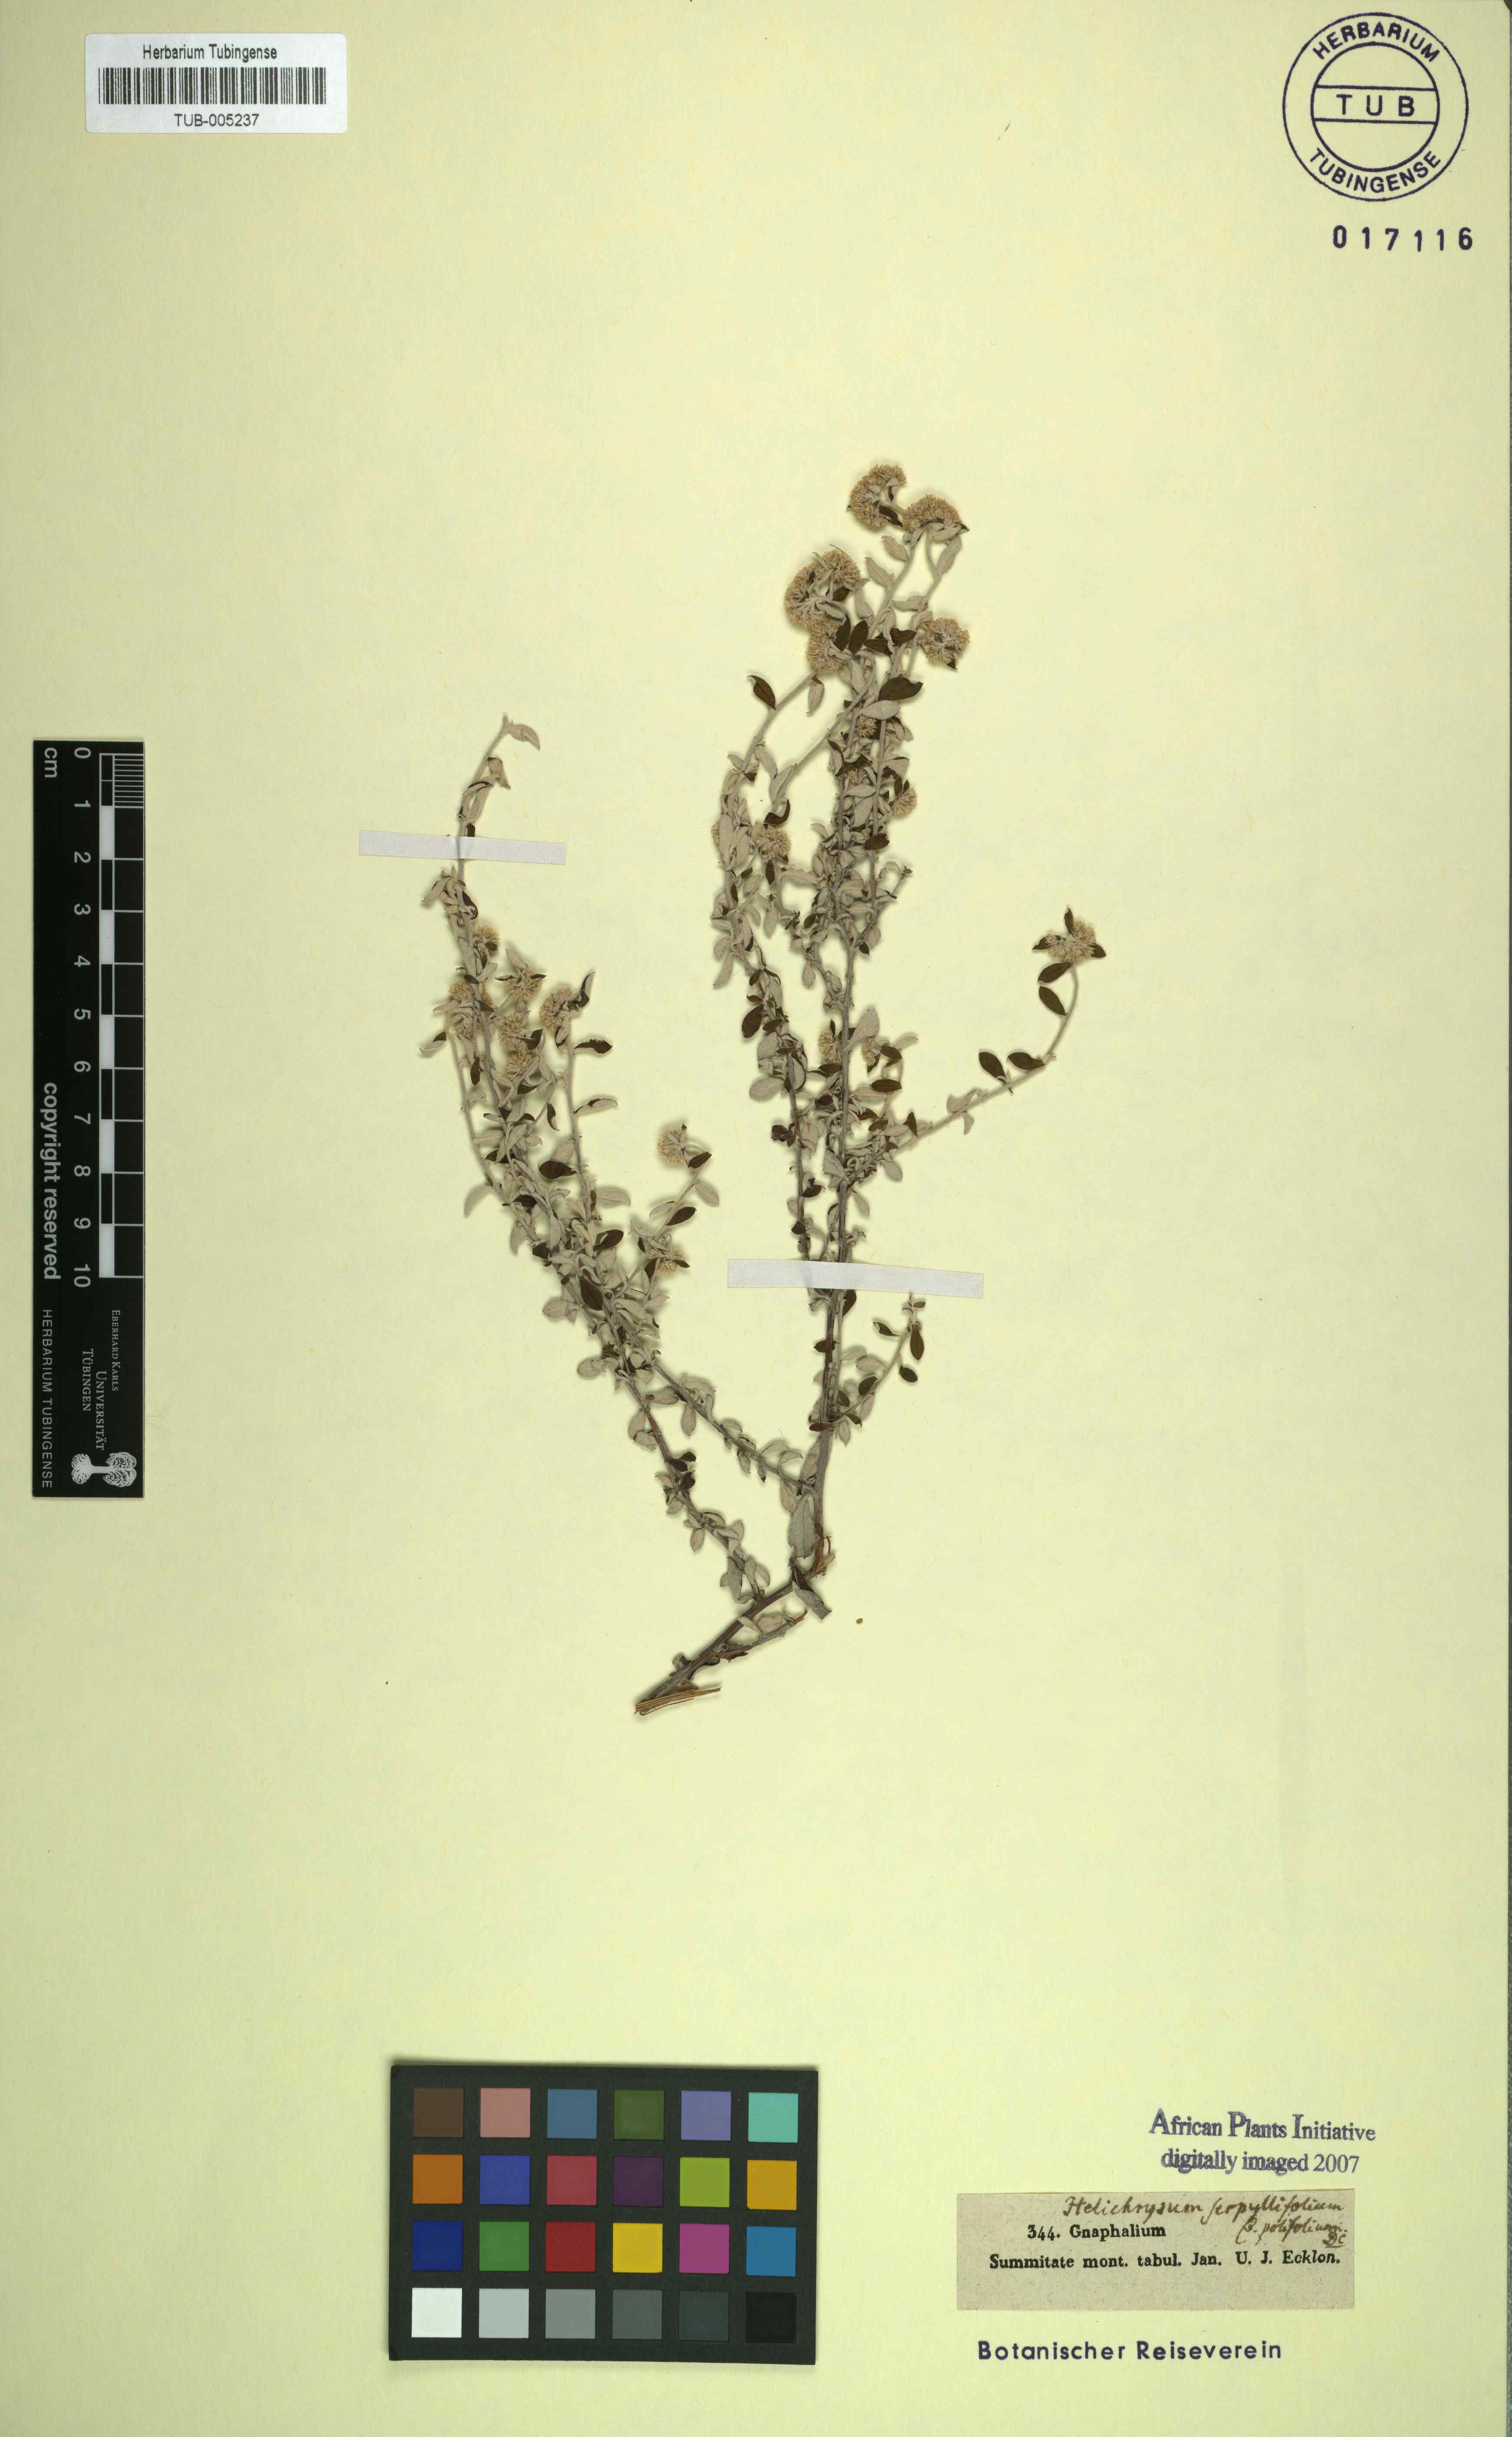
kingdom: Plantae
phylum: Tracheophyta
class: Magnoliopsida
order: Asterales
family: Asteraceae
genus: Plecostachys
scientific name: Plecostachys serpyllifolia
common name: Petite licorice
